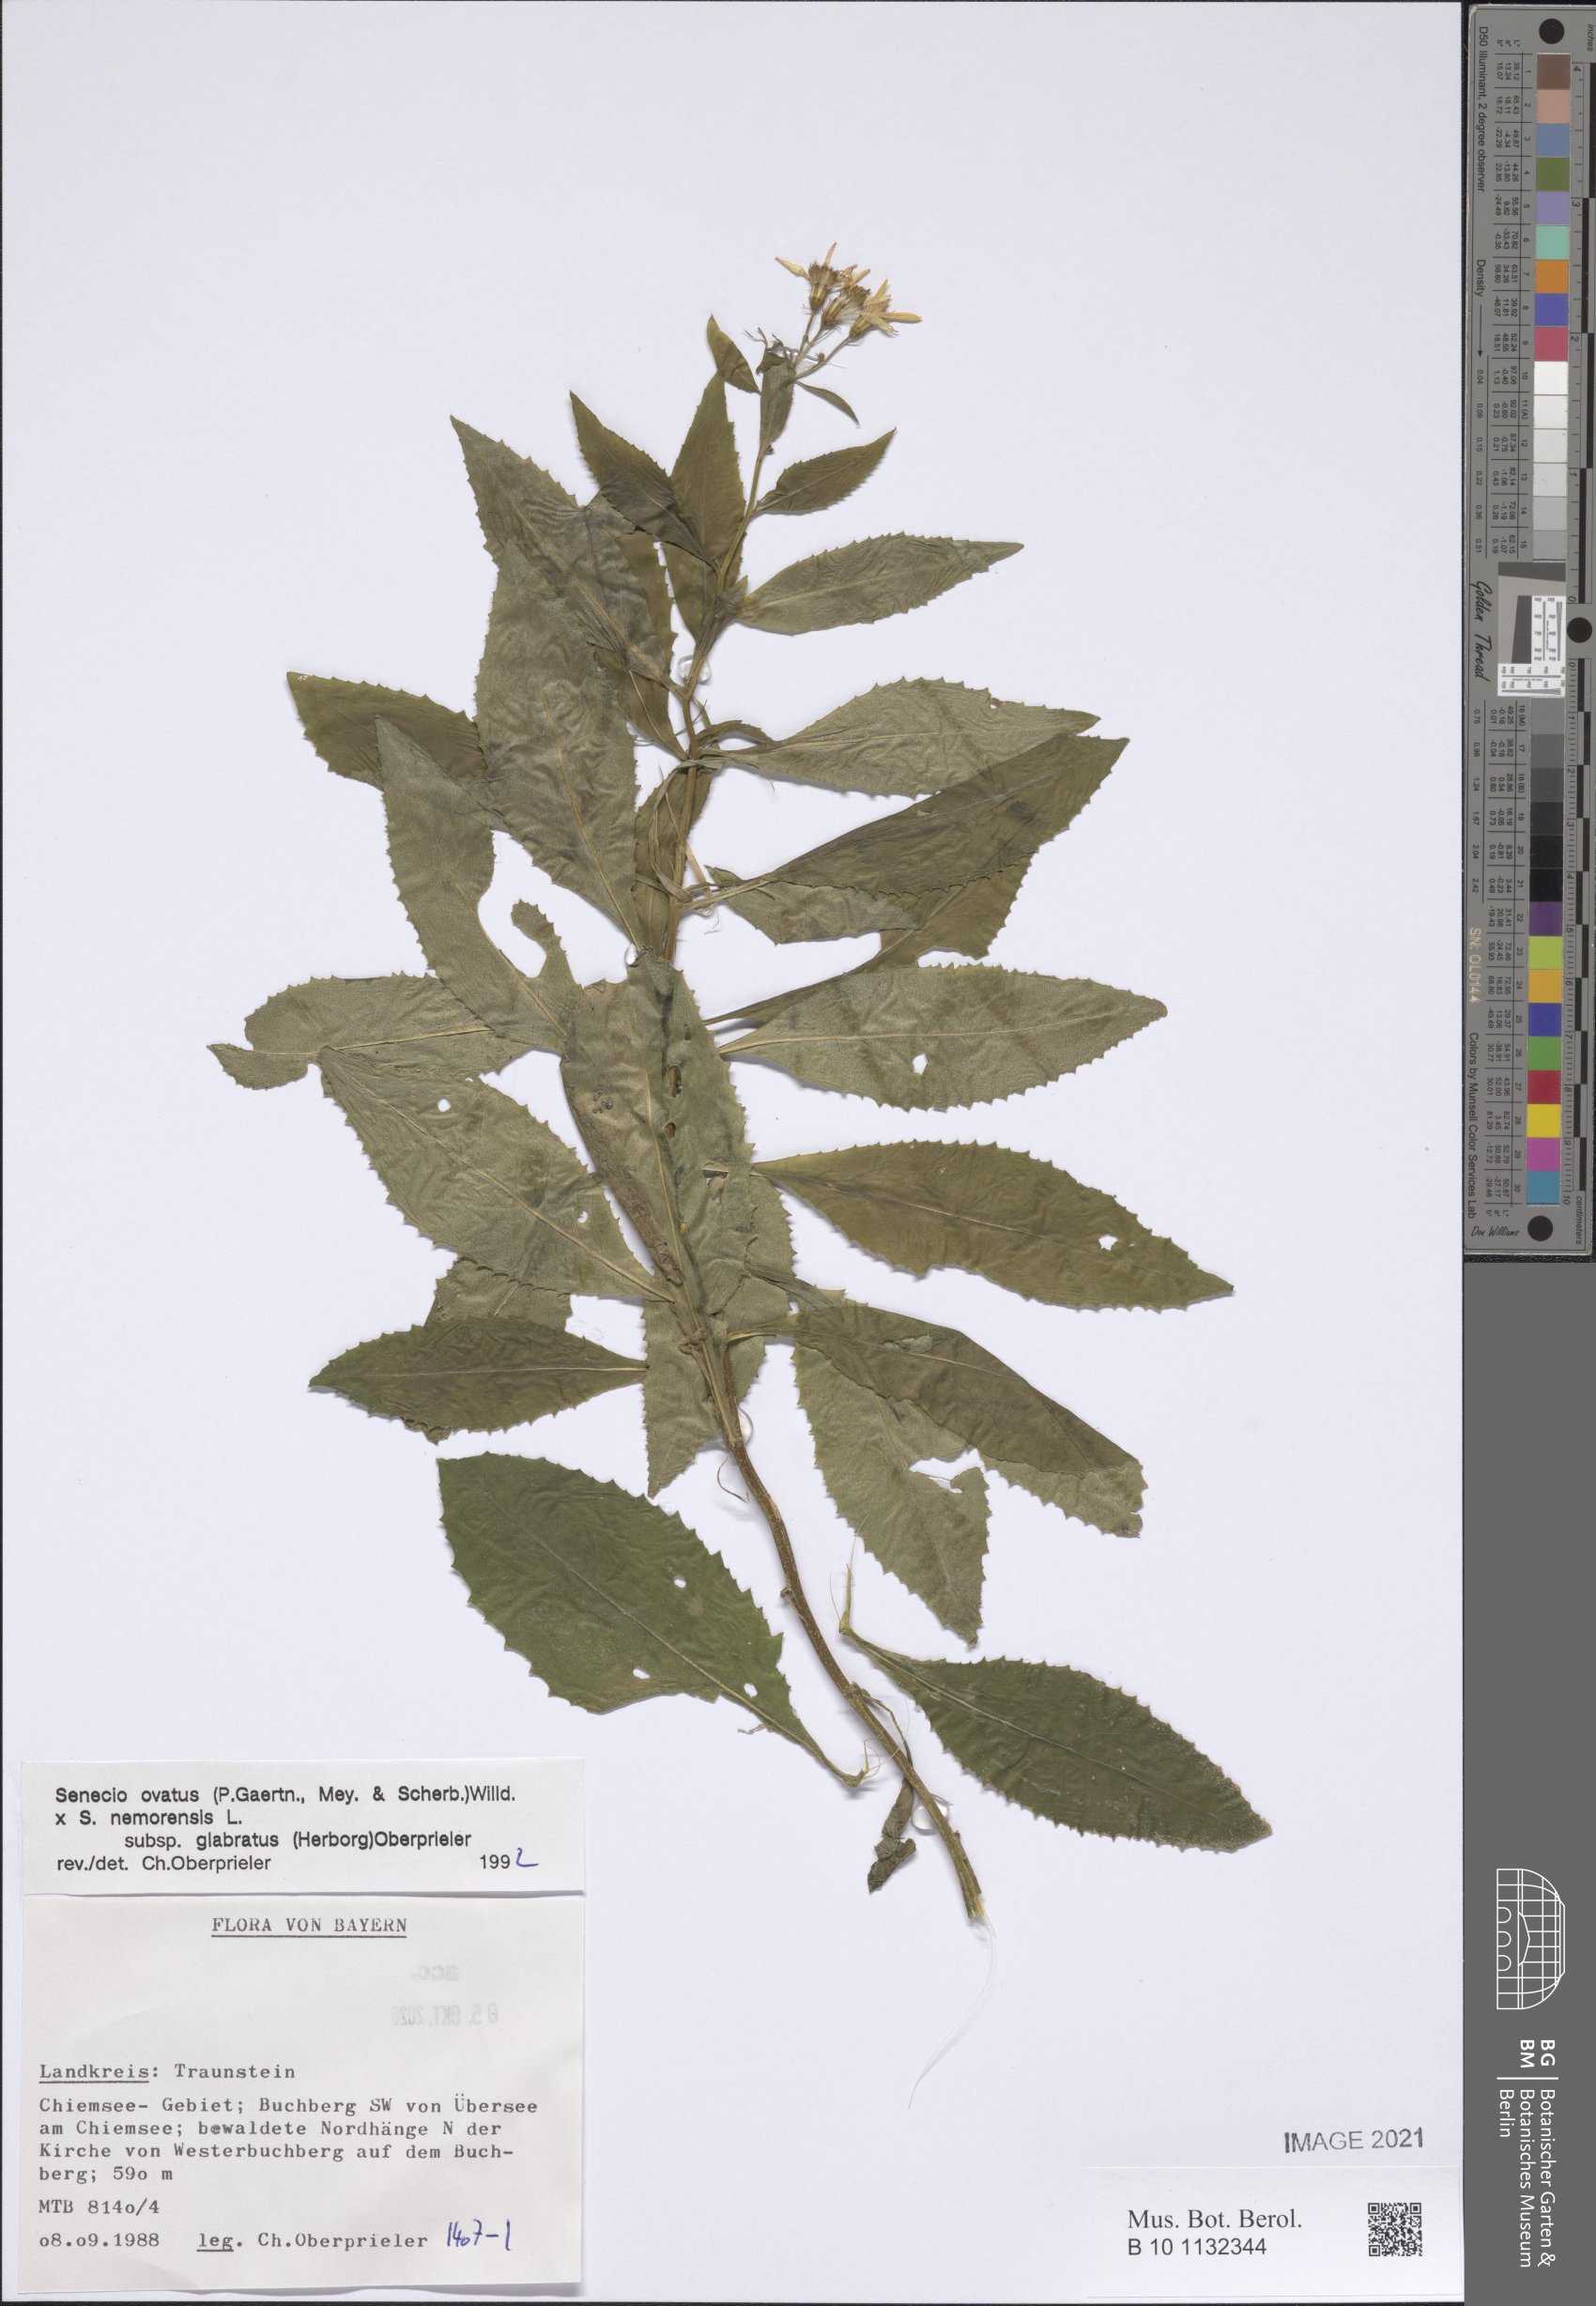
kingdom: Plantae
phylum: Tracheophyta
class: Magnoliopsida
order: Asterales
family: Asteraceae
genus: Senecio
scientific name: Senecio ovatus
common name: Wood ragwort
